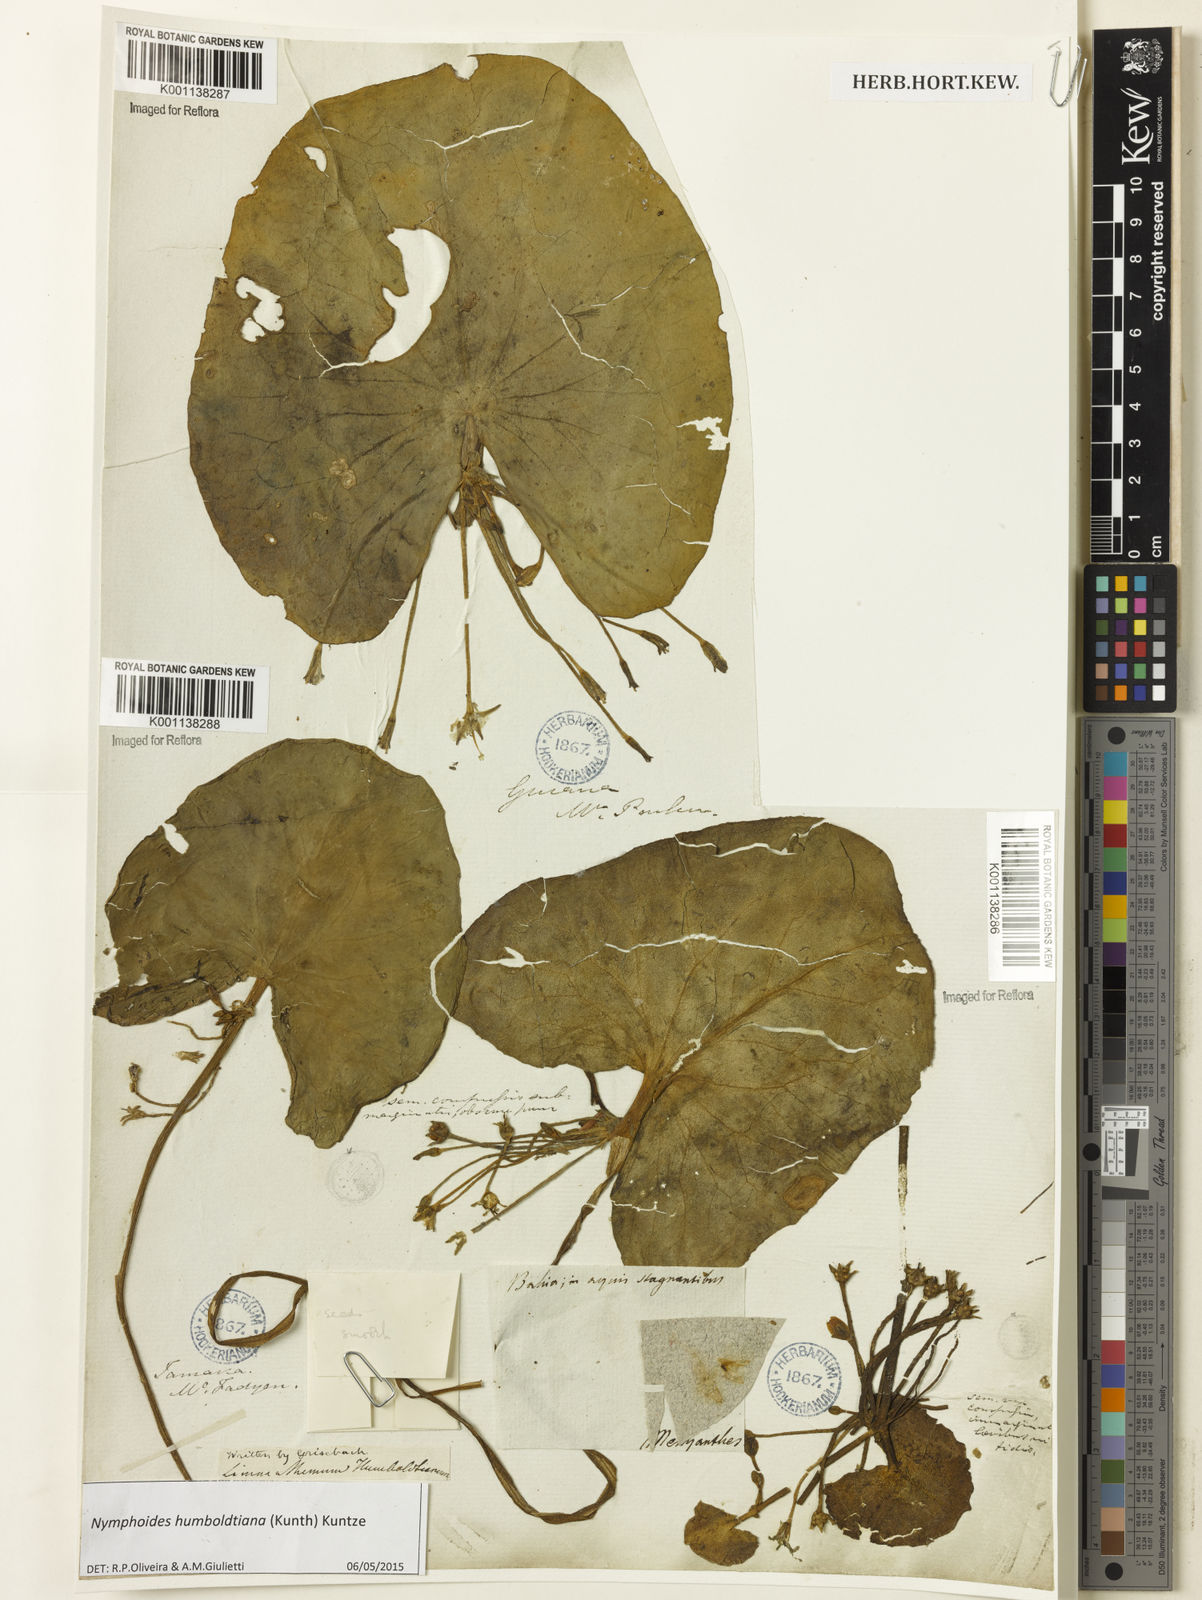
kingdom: Plantae
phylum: Tracheophyta
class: Magnoliopsida
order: Asterales
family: Menyanthaceae
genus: Nymphoides
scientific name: Nymphoides humboldtiana
